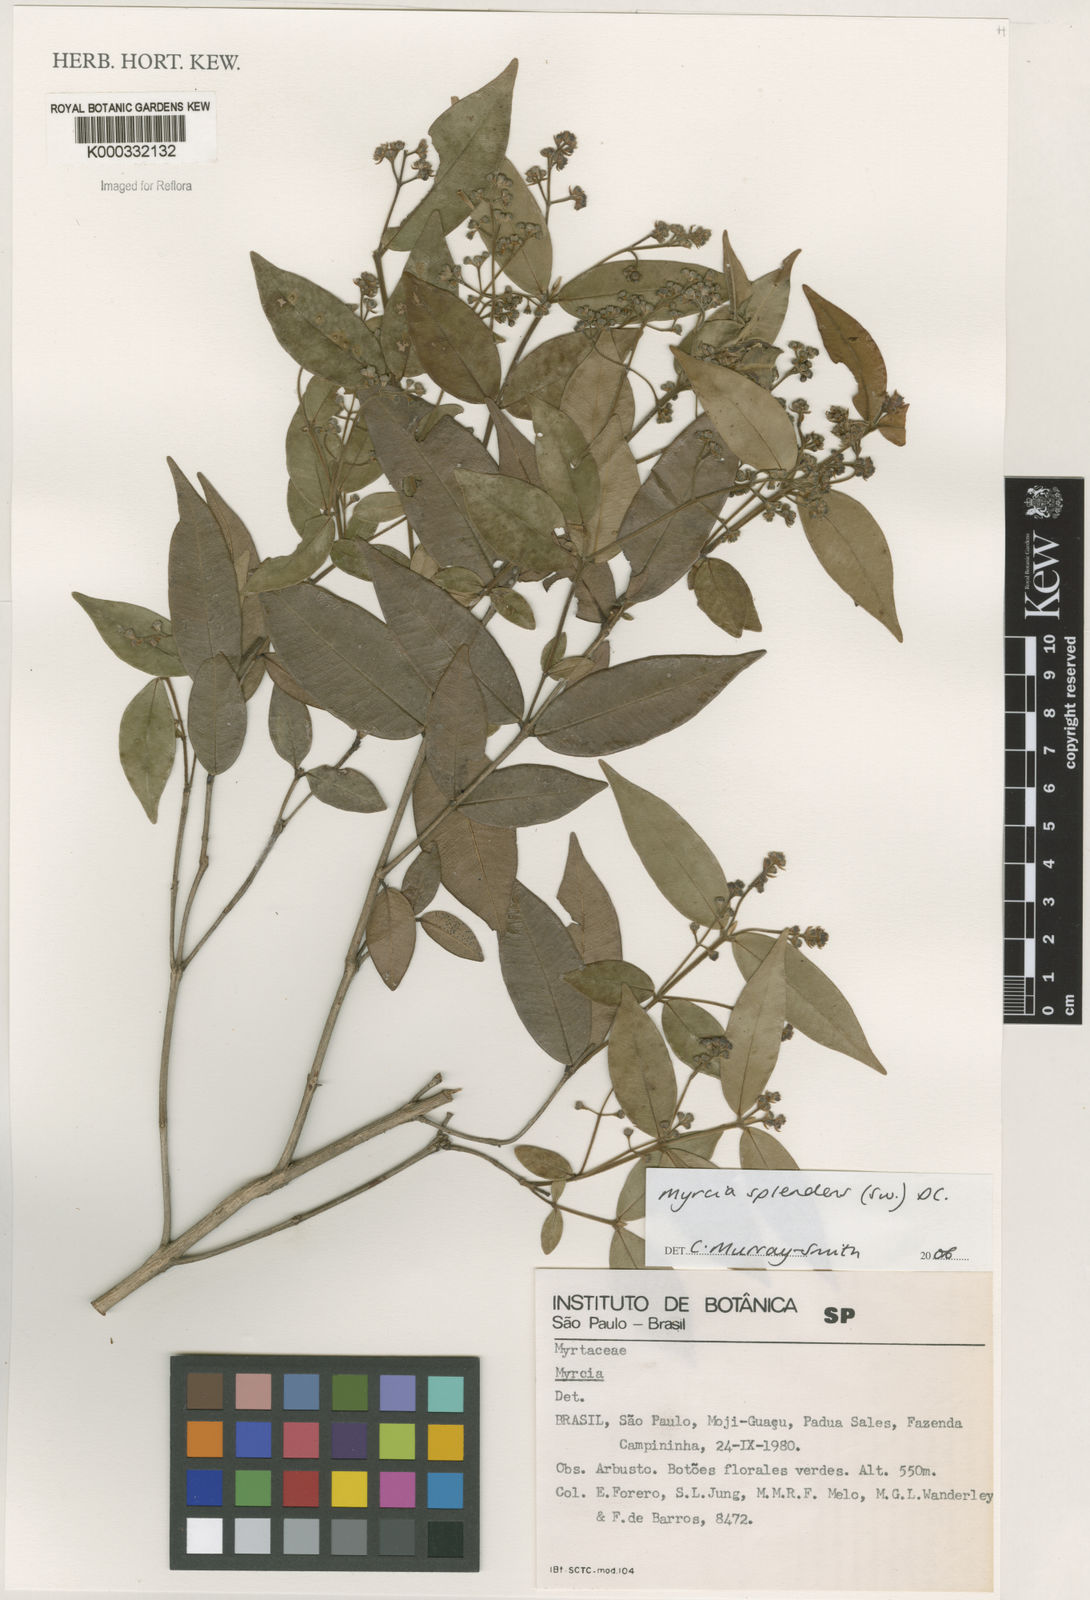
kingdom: Plantae
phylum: Tracheophyta
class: Magnoliopsida
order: Myrtales
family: Myrtaceae
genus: Myrcia
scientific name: Myrcia splendens
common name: Surinam cherry
